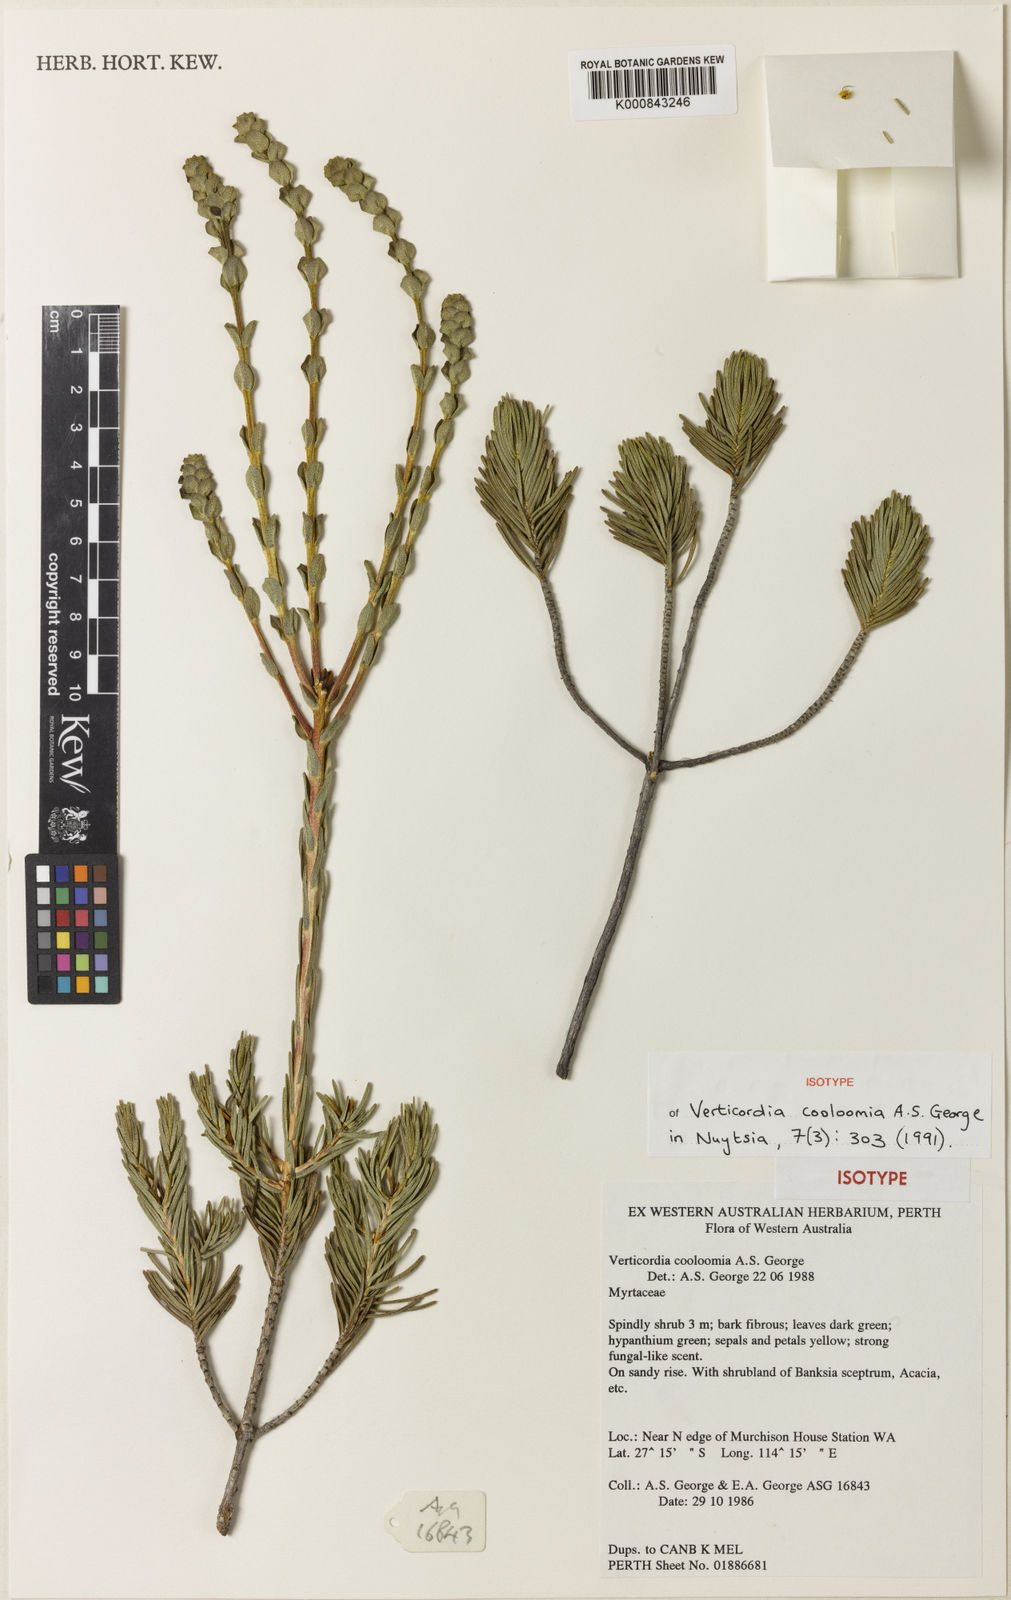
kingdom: Plantae
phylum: Tracheophyta
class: Magnoliopsida
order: Myrtales
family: Myrtaceae
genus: Verticordia
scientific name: Verticordia cooloomia
